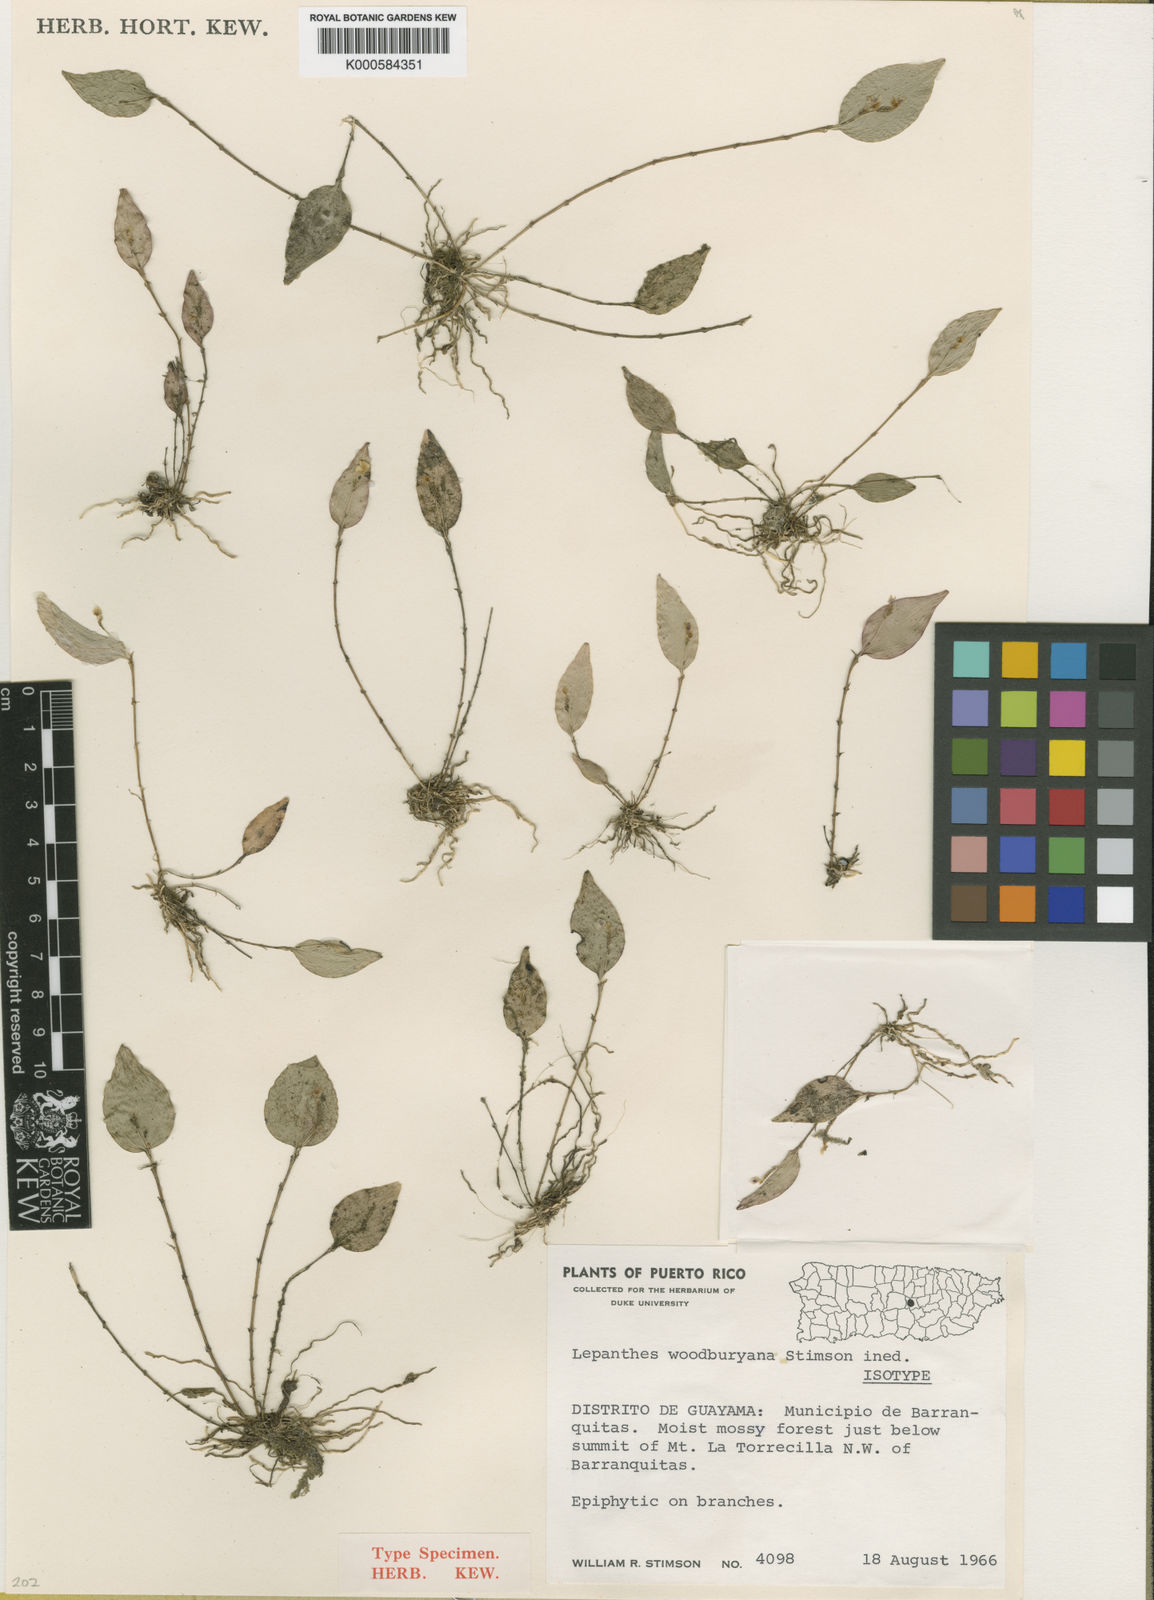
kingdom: Plantae
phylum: Tracheophyta
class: Liliopsida
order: Asparagales
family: Orchidaceae
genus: Lepanthes
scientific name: Lepanthes woodburyana
